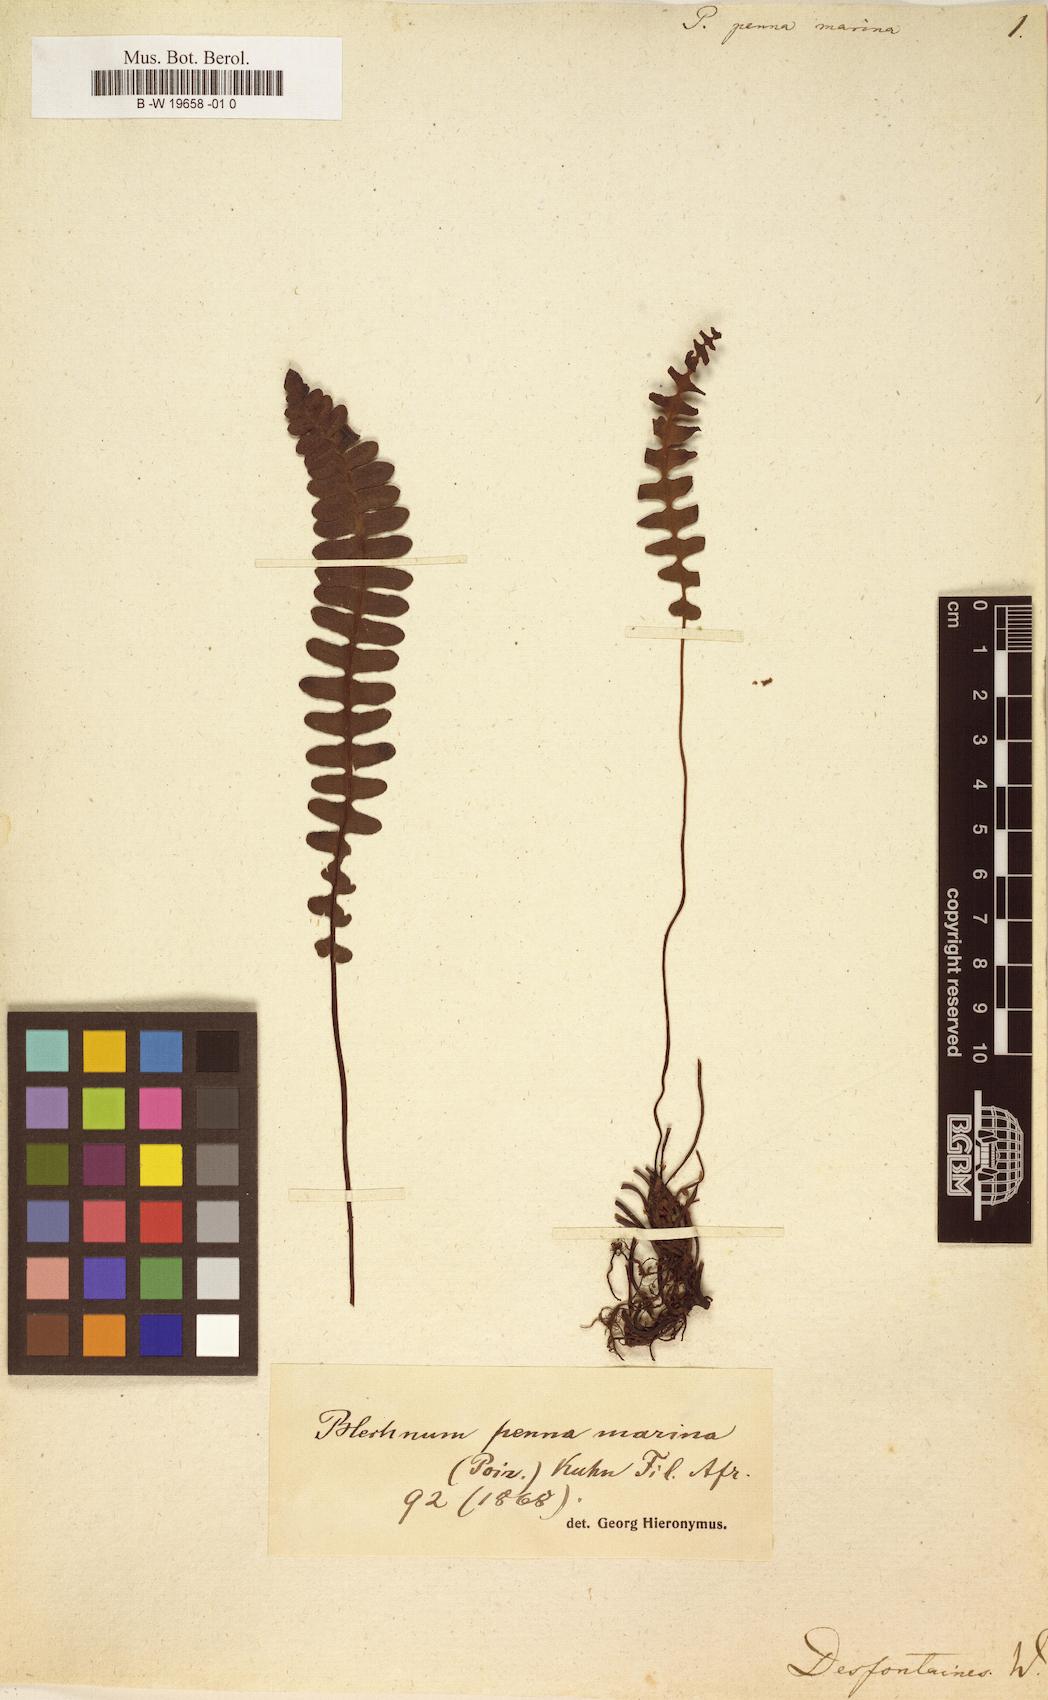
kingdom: Plantae
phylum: Tracheophyta
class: Polypodiopsida
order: Polypodiales
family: Thelypteridaceae
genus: Goniopteris
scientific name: Goniopteris pennata
